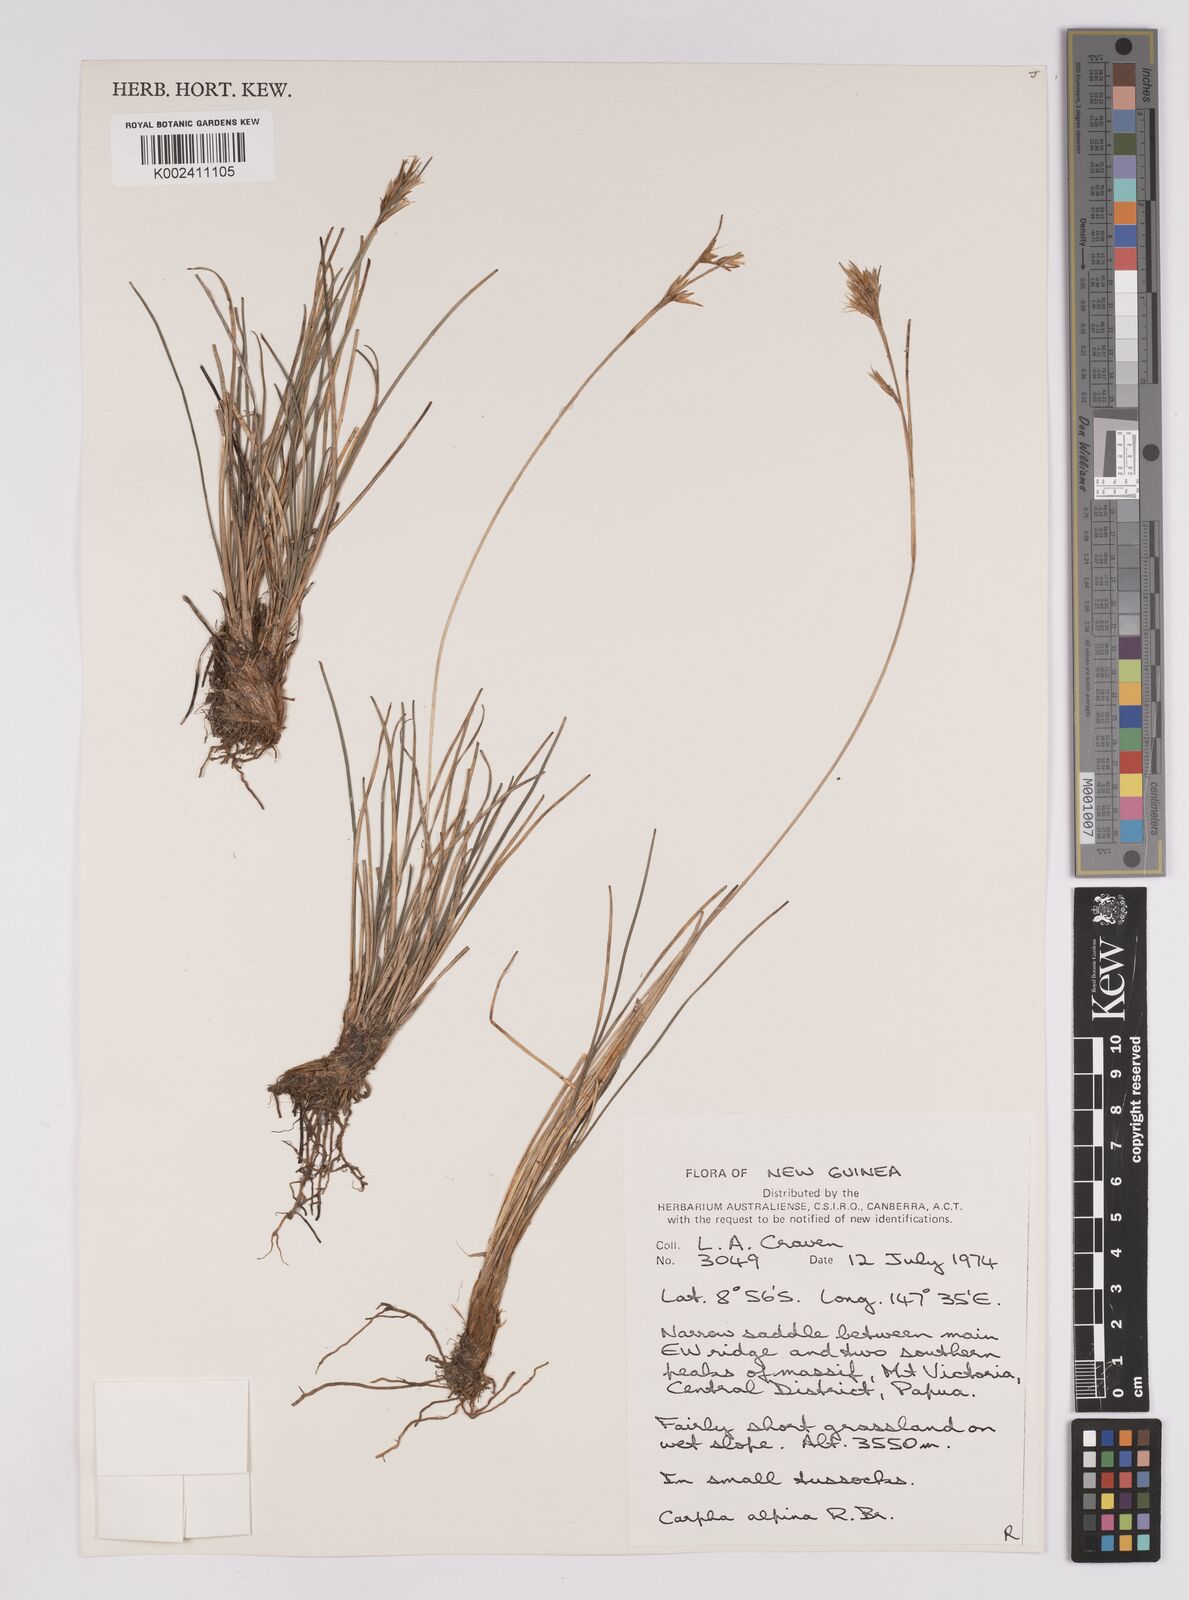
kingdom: Plantae
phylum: Tracheophyta
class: Liliopsida
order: Poales
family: Cyperaceae
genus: Carpha
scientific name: Carpha alpina
